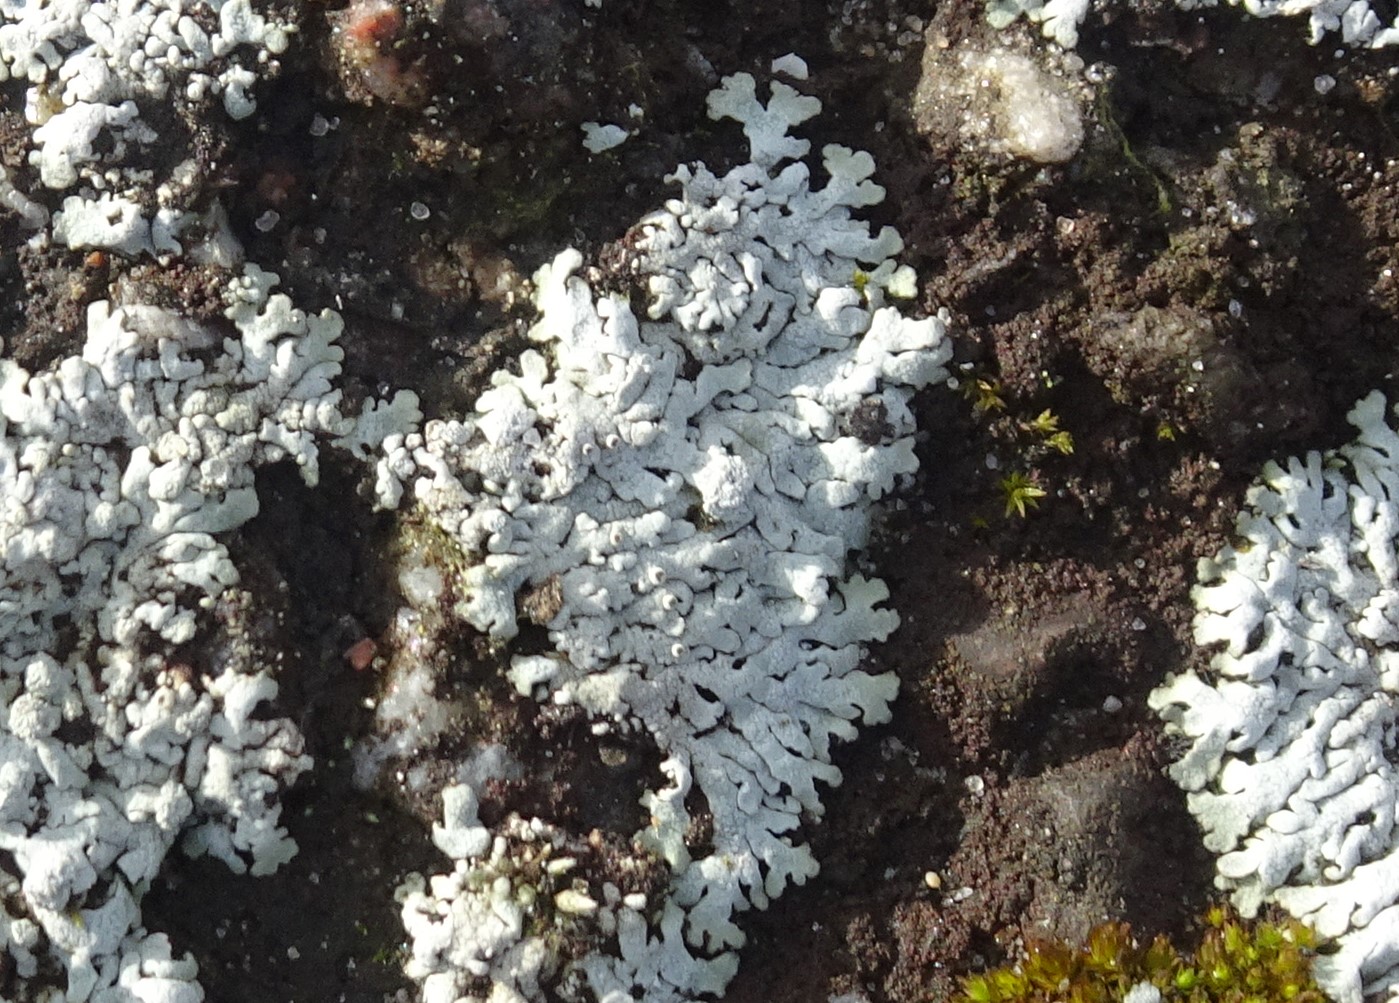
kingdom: Fungi
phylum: Ascomycota
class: Lecanoromycetes
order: Caliciales
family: Physciaceae
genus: Physcia
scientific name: Physcia caesia
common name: blågrå rosetlav
